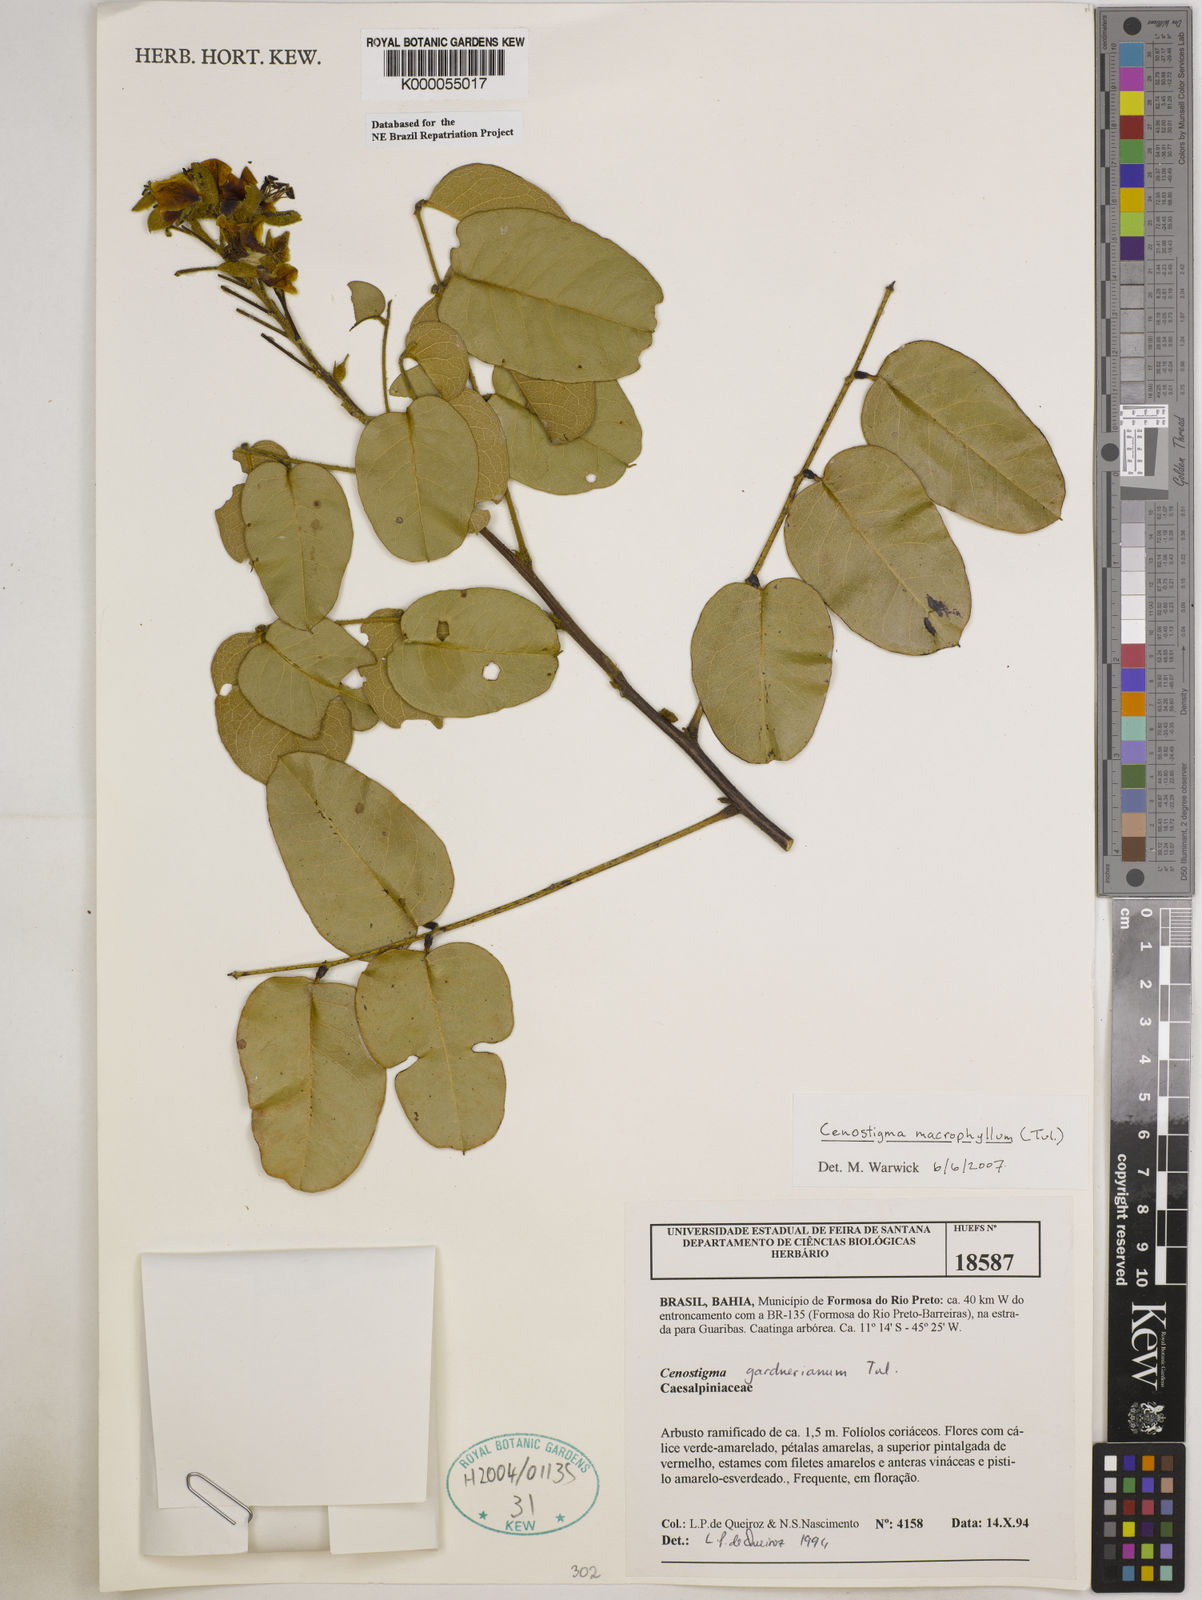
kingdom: Plantae
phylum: Tracheophyta
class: Magnoliopsida
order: Fabales
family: Fabaceae
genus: Cenostigma
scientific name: Cenostigma macrophyllum
